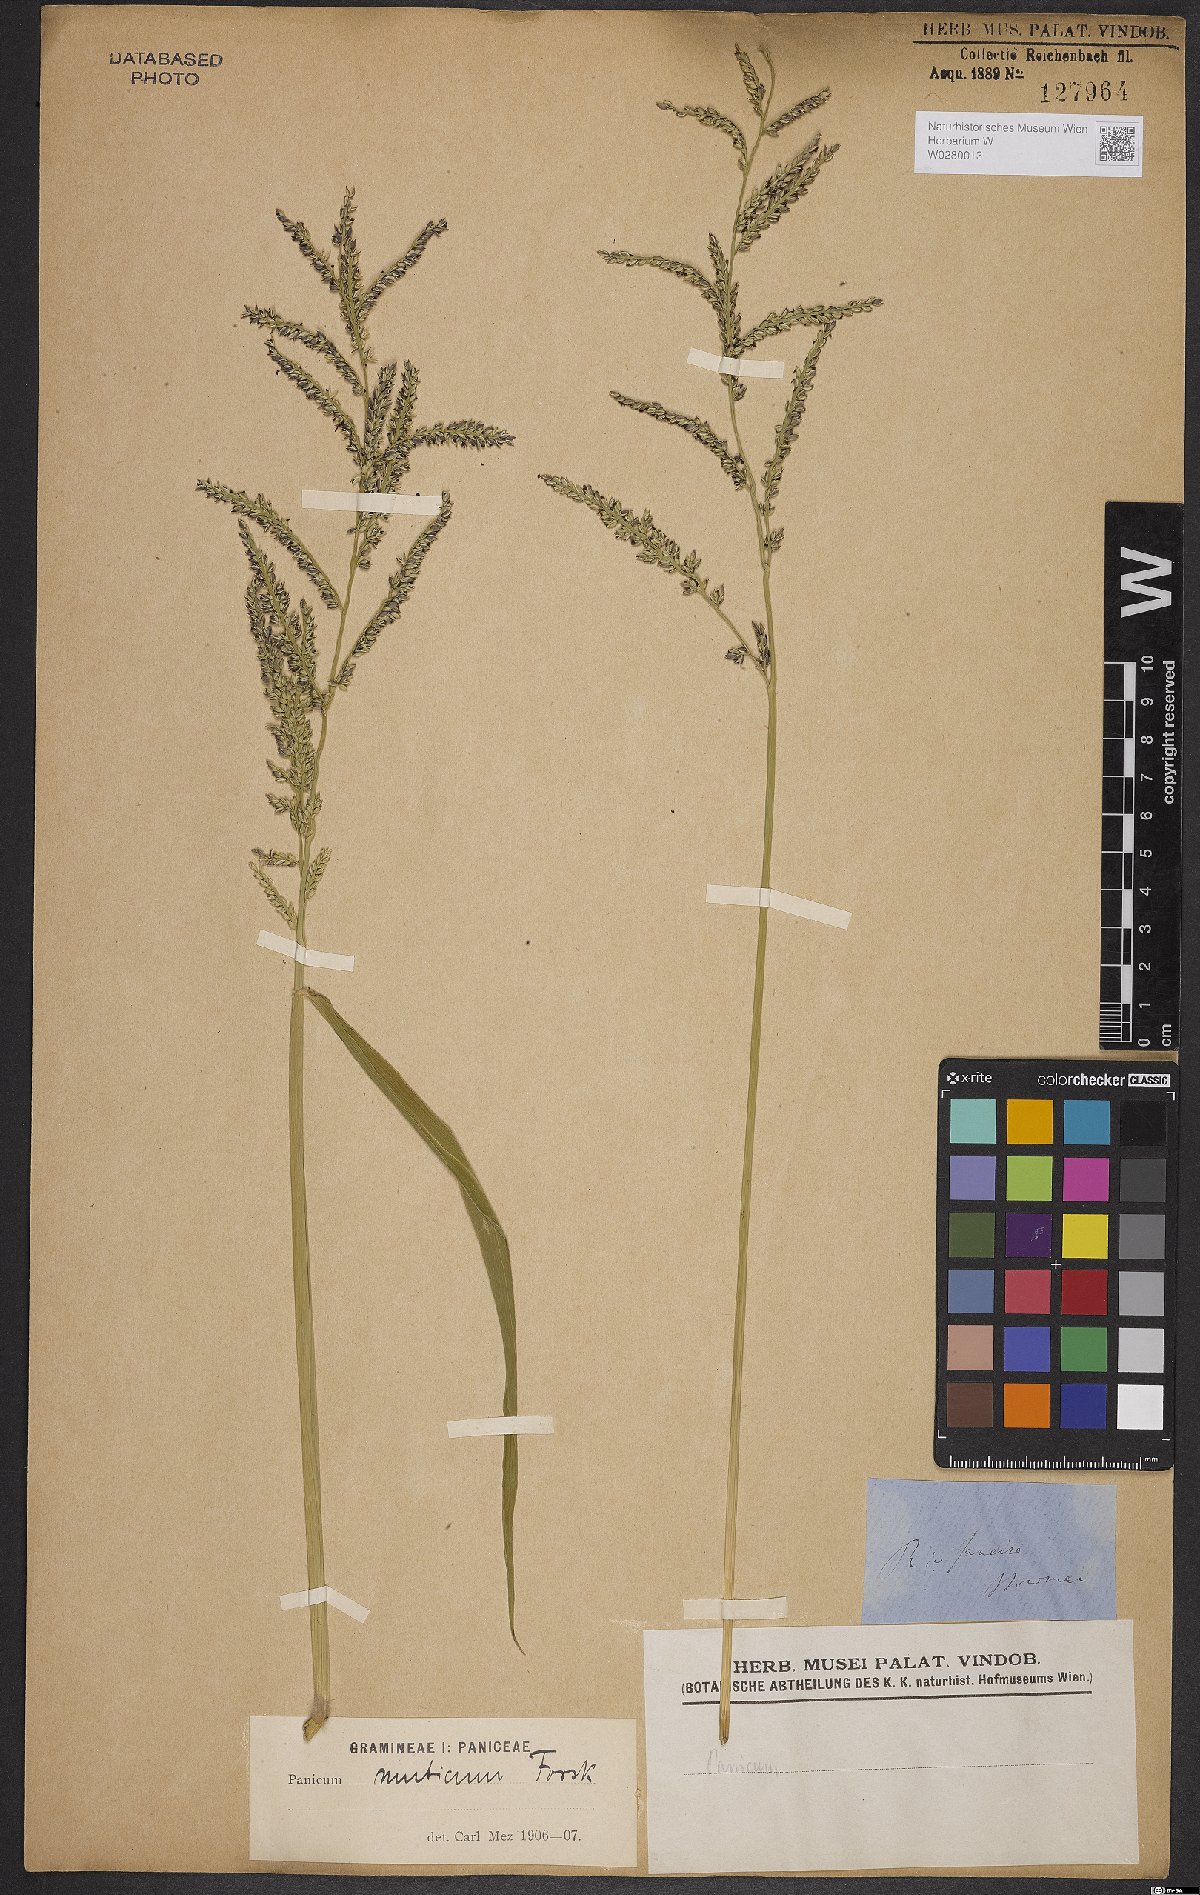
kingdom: Plantae
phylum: Tracheophyta
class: Liliopsida
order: Poales
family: Poaceae
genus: Urochloa
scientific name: Urochloa mutica
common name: Para grass
